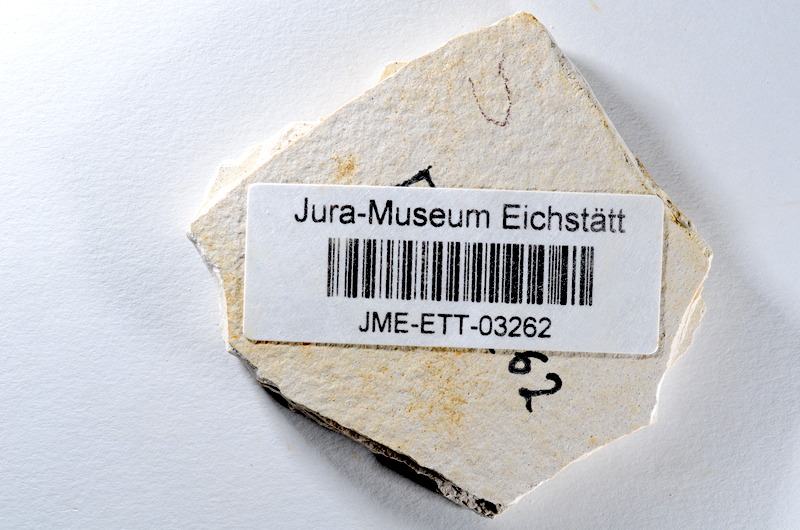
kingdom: Animalia
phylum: Chordata
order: Salmoniformes
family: Orthogonikleithridae
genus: Orthogonikleithrus
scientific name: Orthogonikleithrus hoelli
